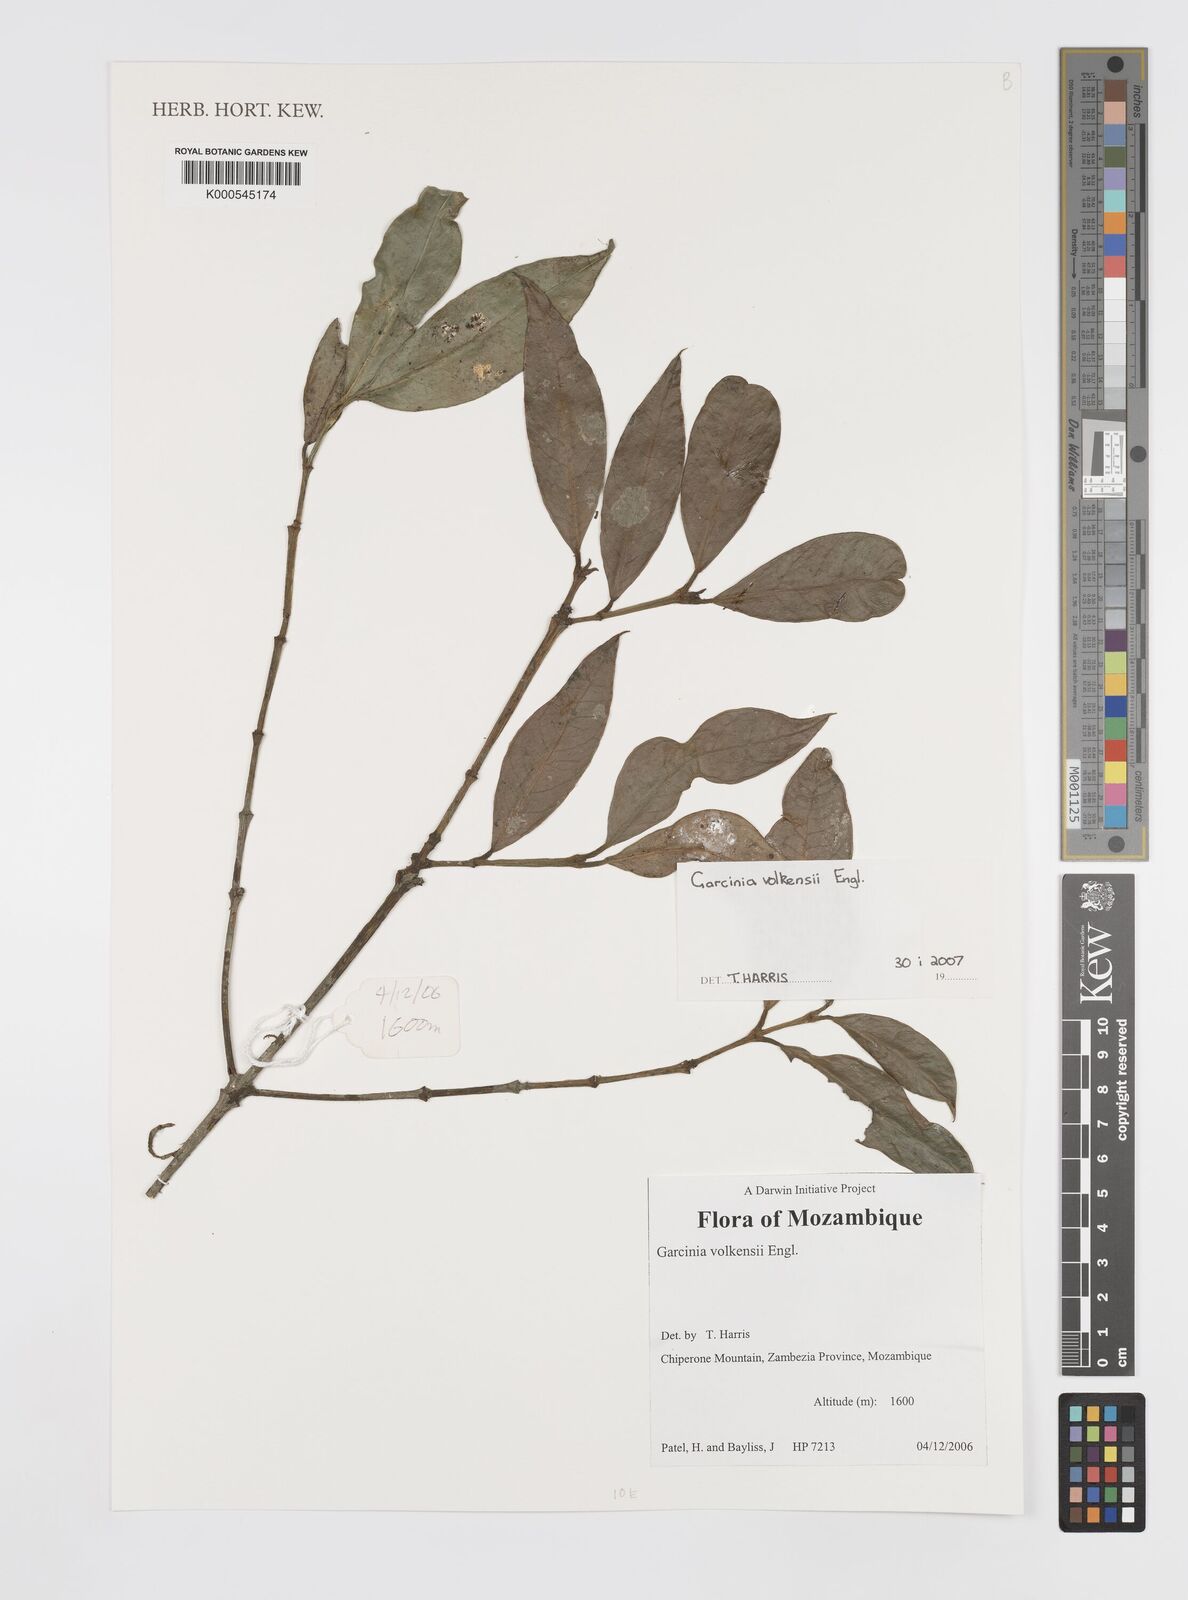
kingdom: Plantae
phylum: Tracheophyta
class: Magnoliopsida
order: Malpighiales
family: Clusiaceae
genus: Garcinia
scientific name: Garcinia volkensii
